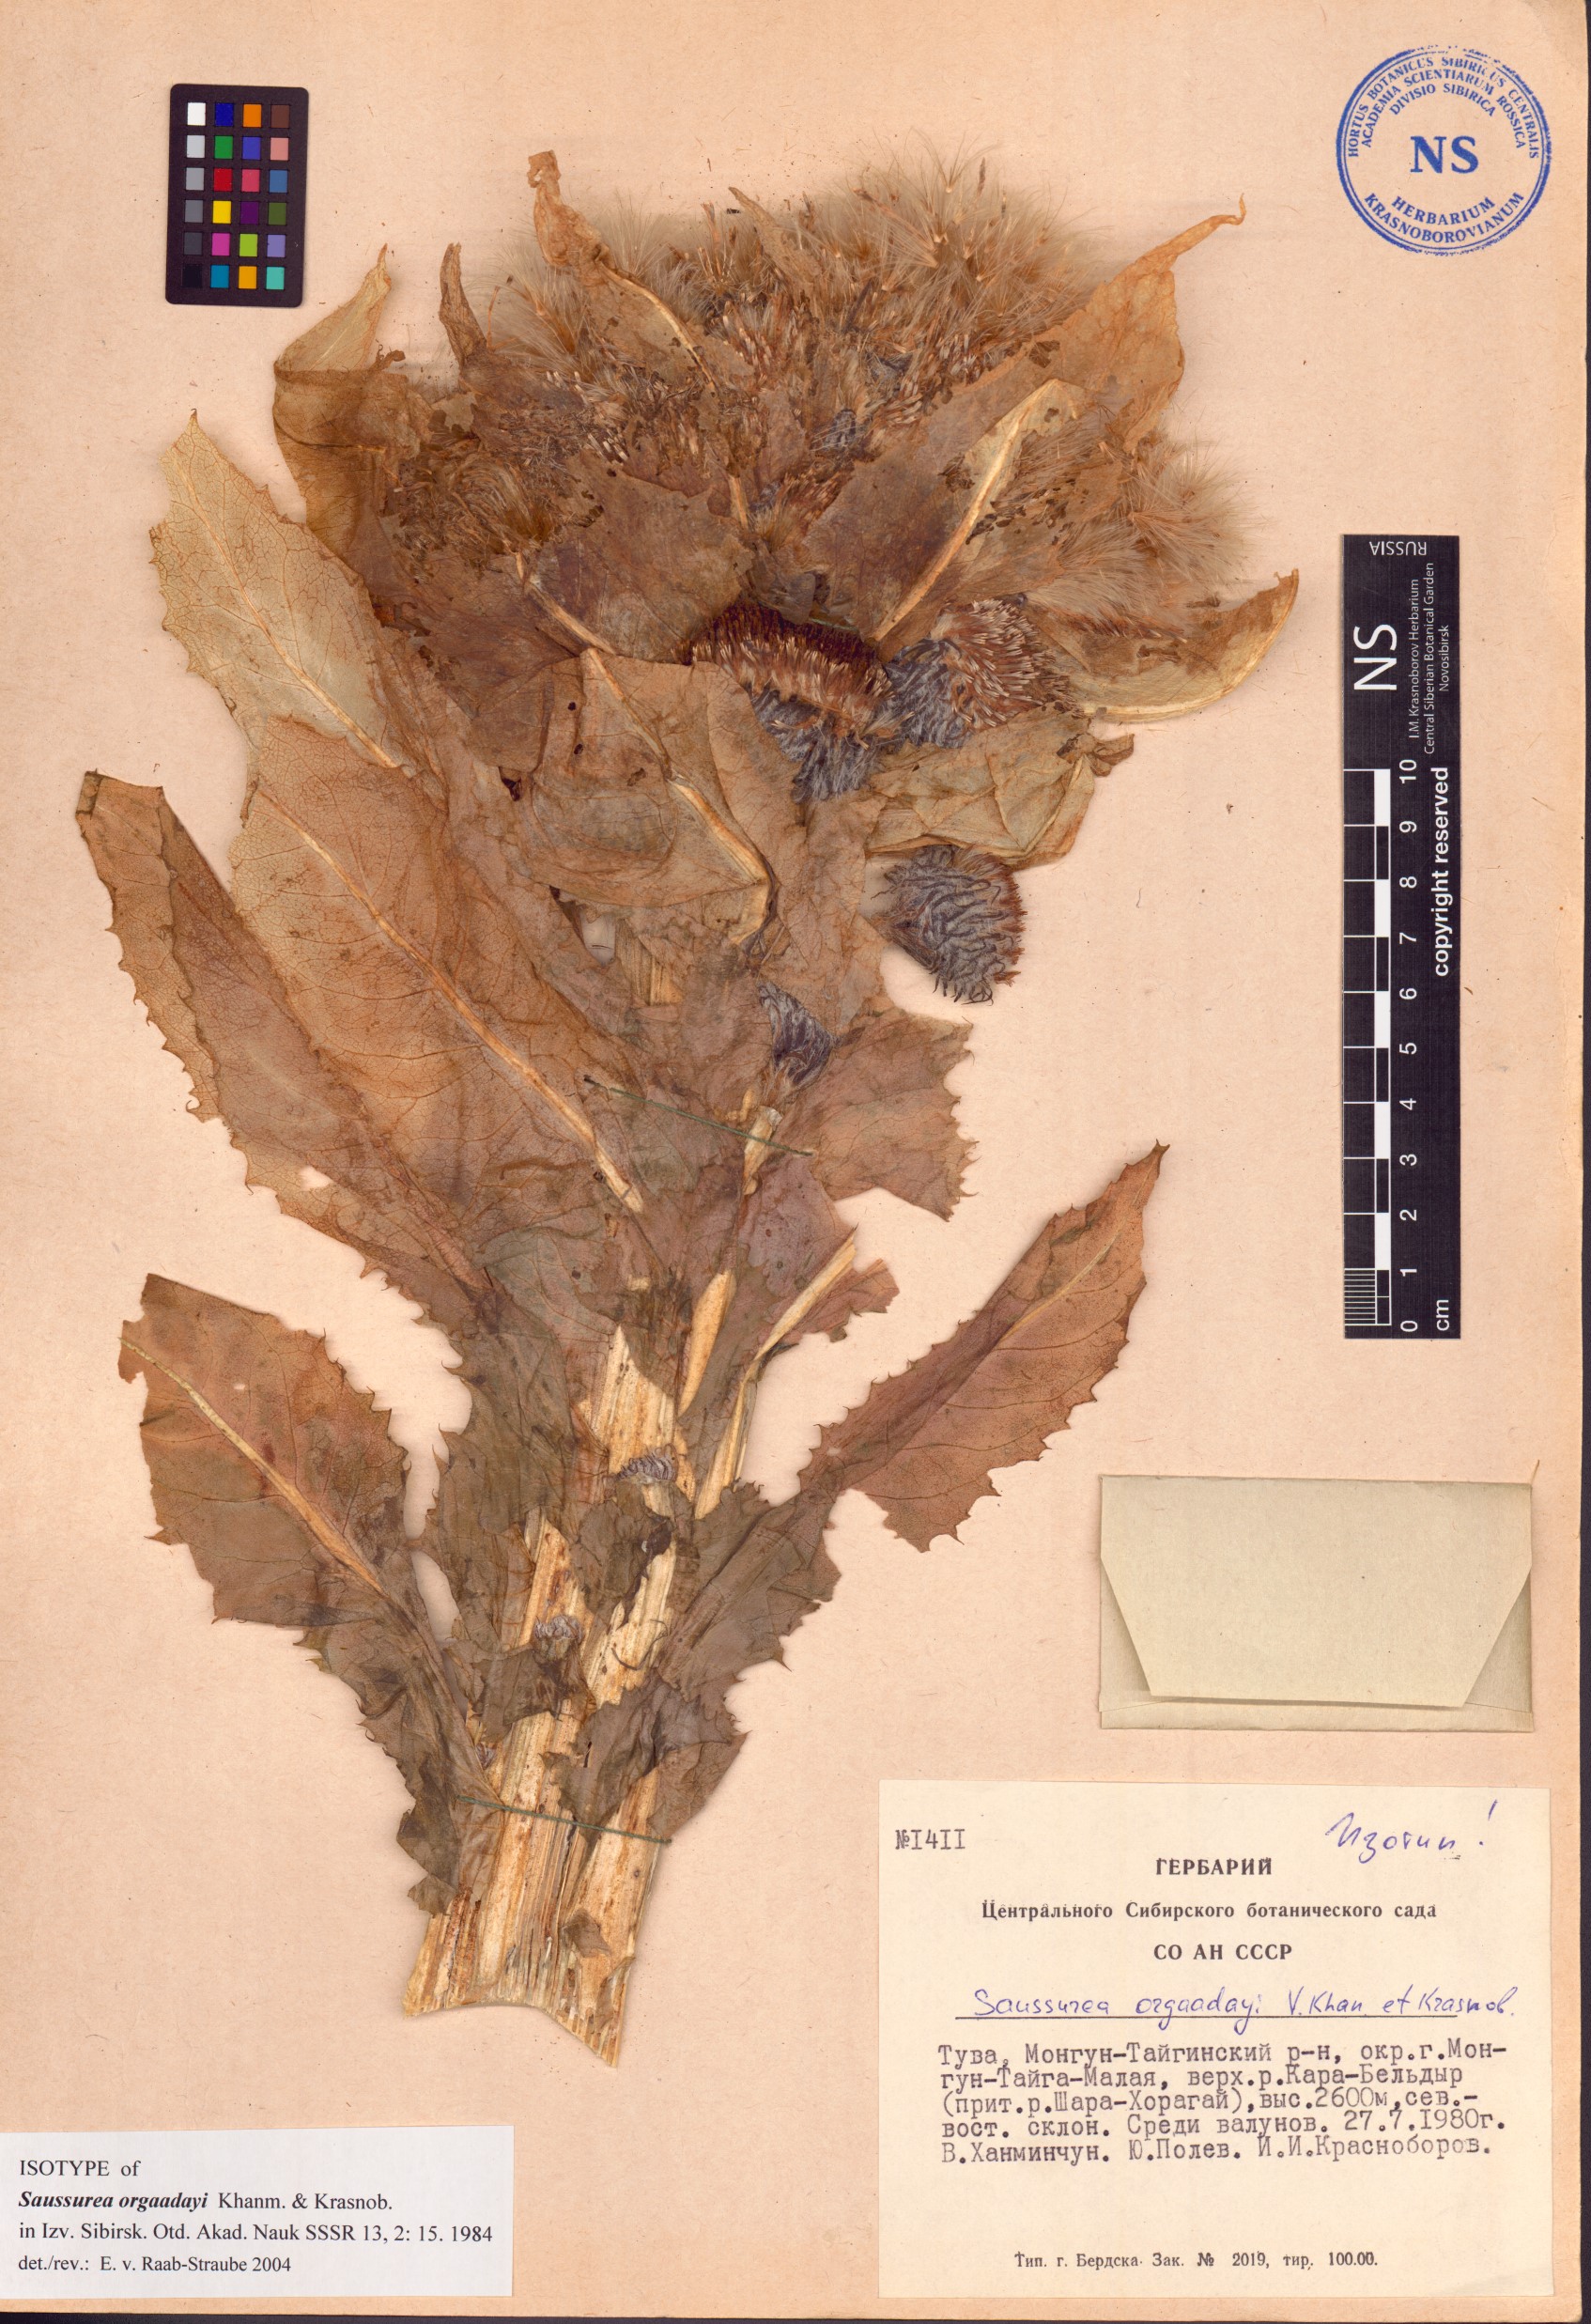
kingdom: Plantae
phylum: Tracheophyta
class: Magnoliopsida
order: Asterales
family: Asteraceae
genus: Saussurea
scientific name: Saussurea orgaadayi
